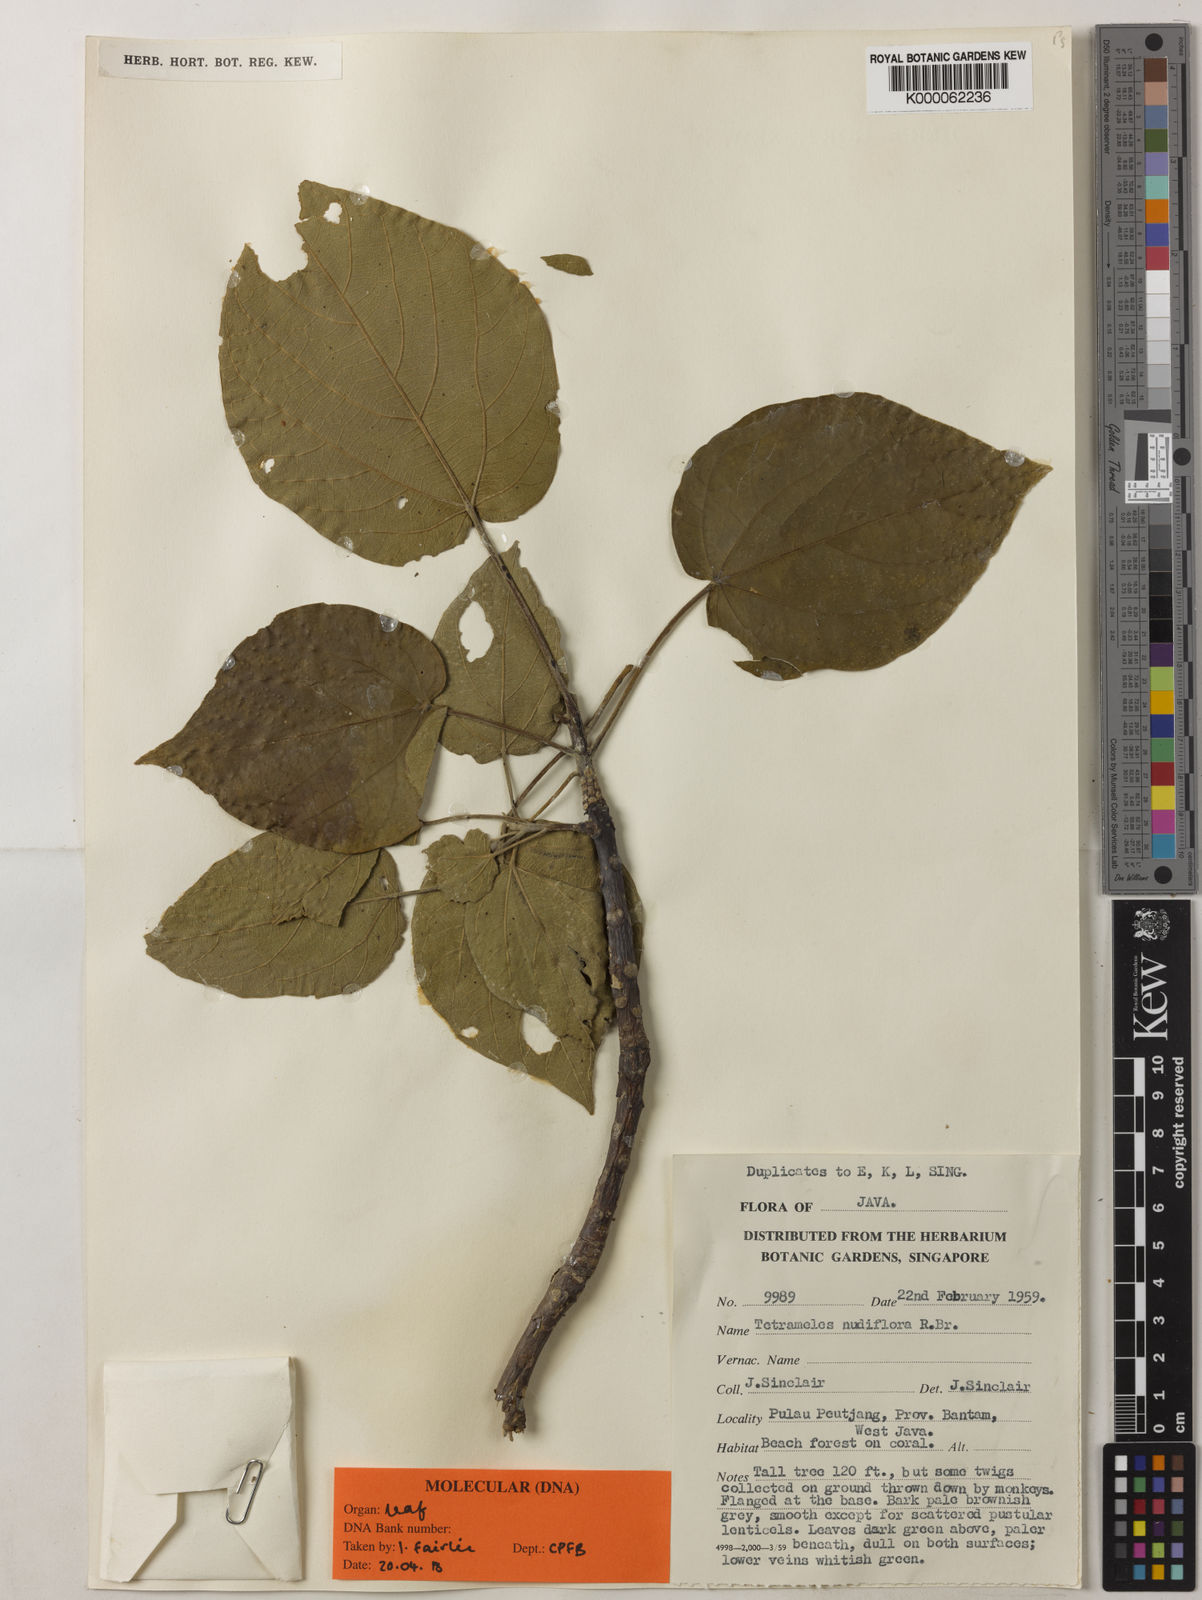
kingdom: Plantae
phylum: Tracheophyta
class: Magnoliopsida
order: Cucurbitales
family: Tetramelaceae
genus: Tetrameles
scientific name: Tetrameles nudiflora
